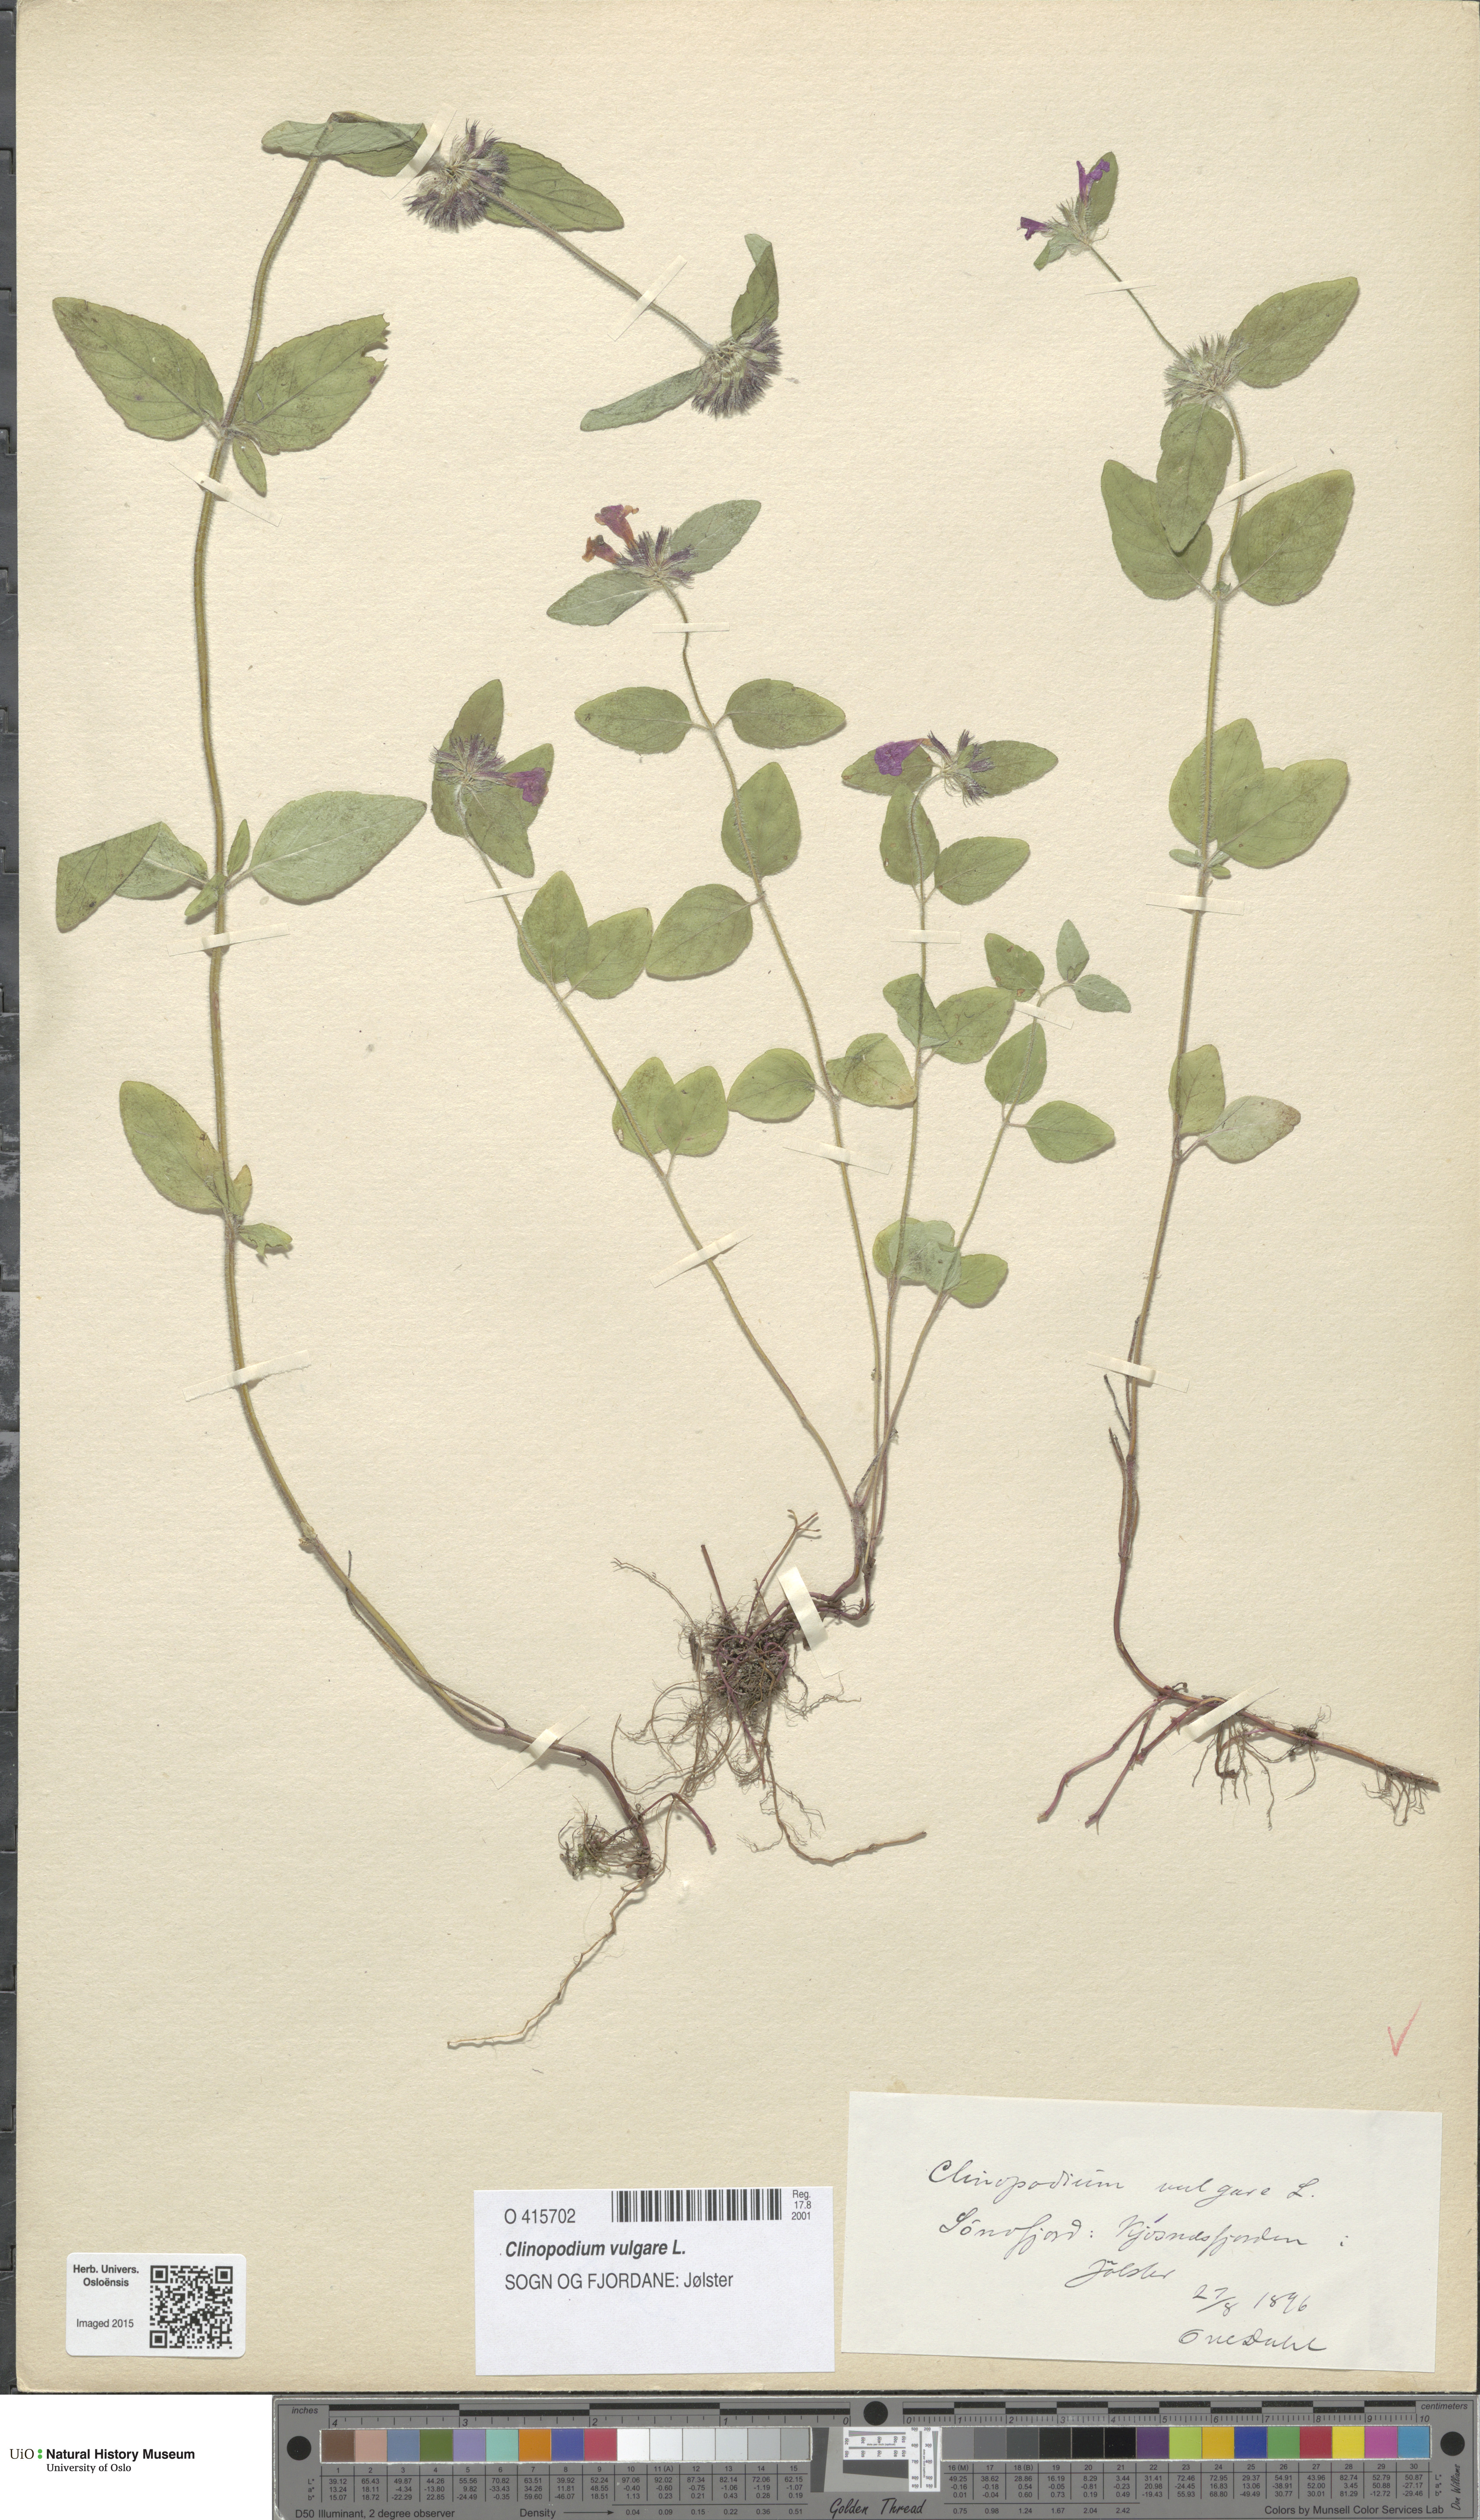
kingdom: Plantae
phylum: Tracheophyta
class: Magnoliopsida
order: Lamiales
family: Lamiaceae
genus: Clinopodium
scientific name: Clinopodium vulgare
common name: Wild basil
